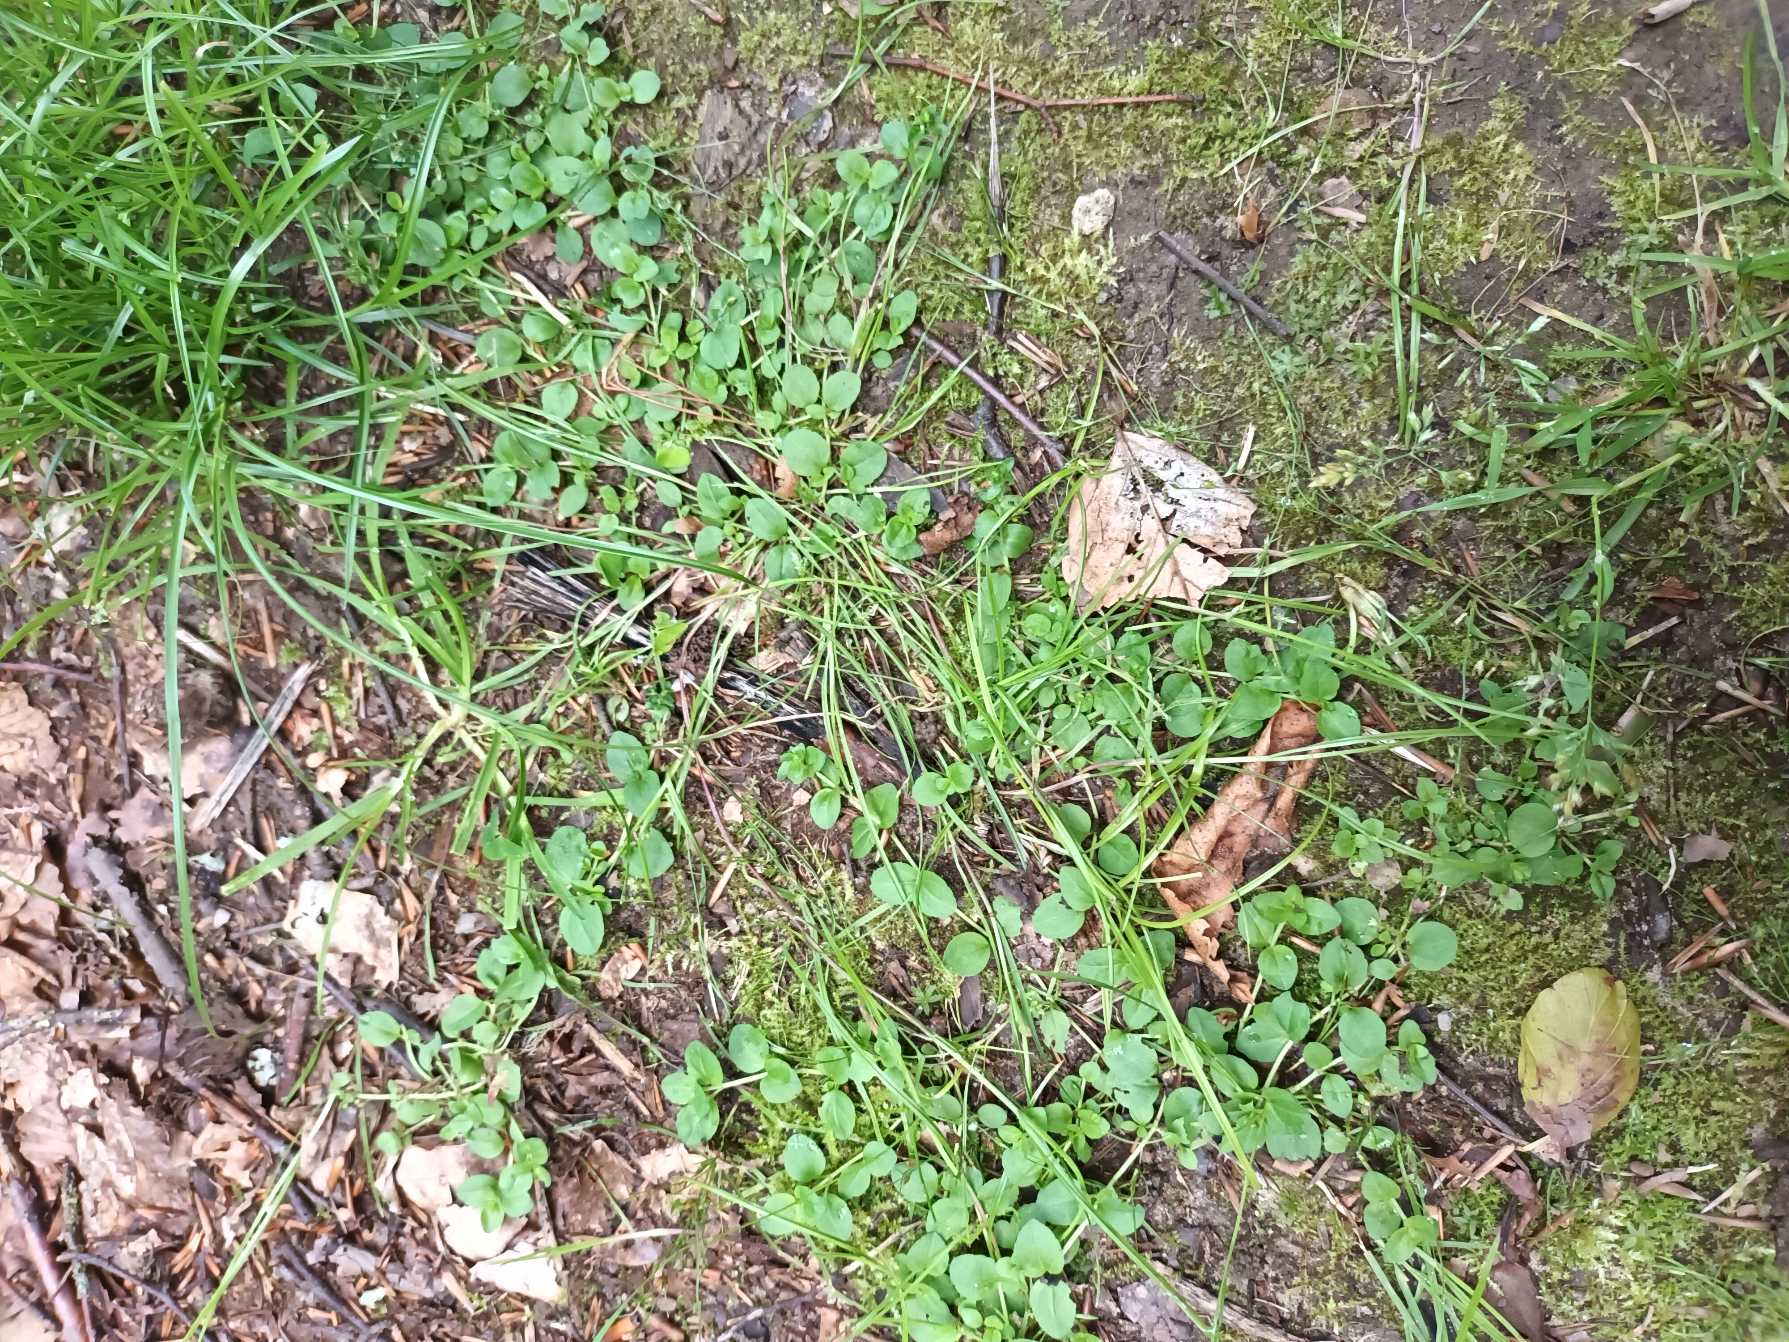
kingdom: Plantae
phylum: Tracheophyta
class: Magnoliopsida
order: Lamiales
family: Plantaginaceae
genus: Veronica
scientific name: Veronica serpyllifolia
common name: Glat ærenpris
